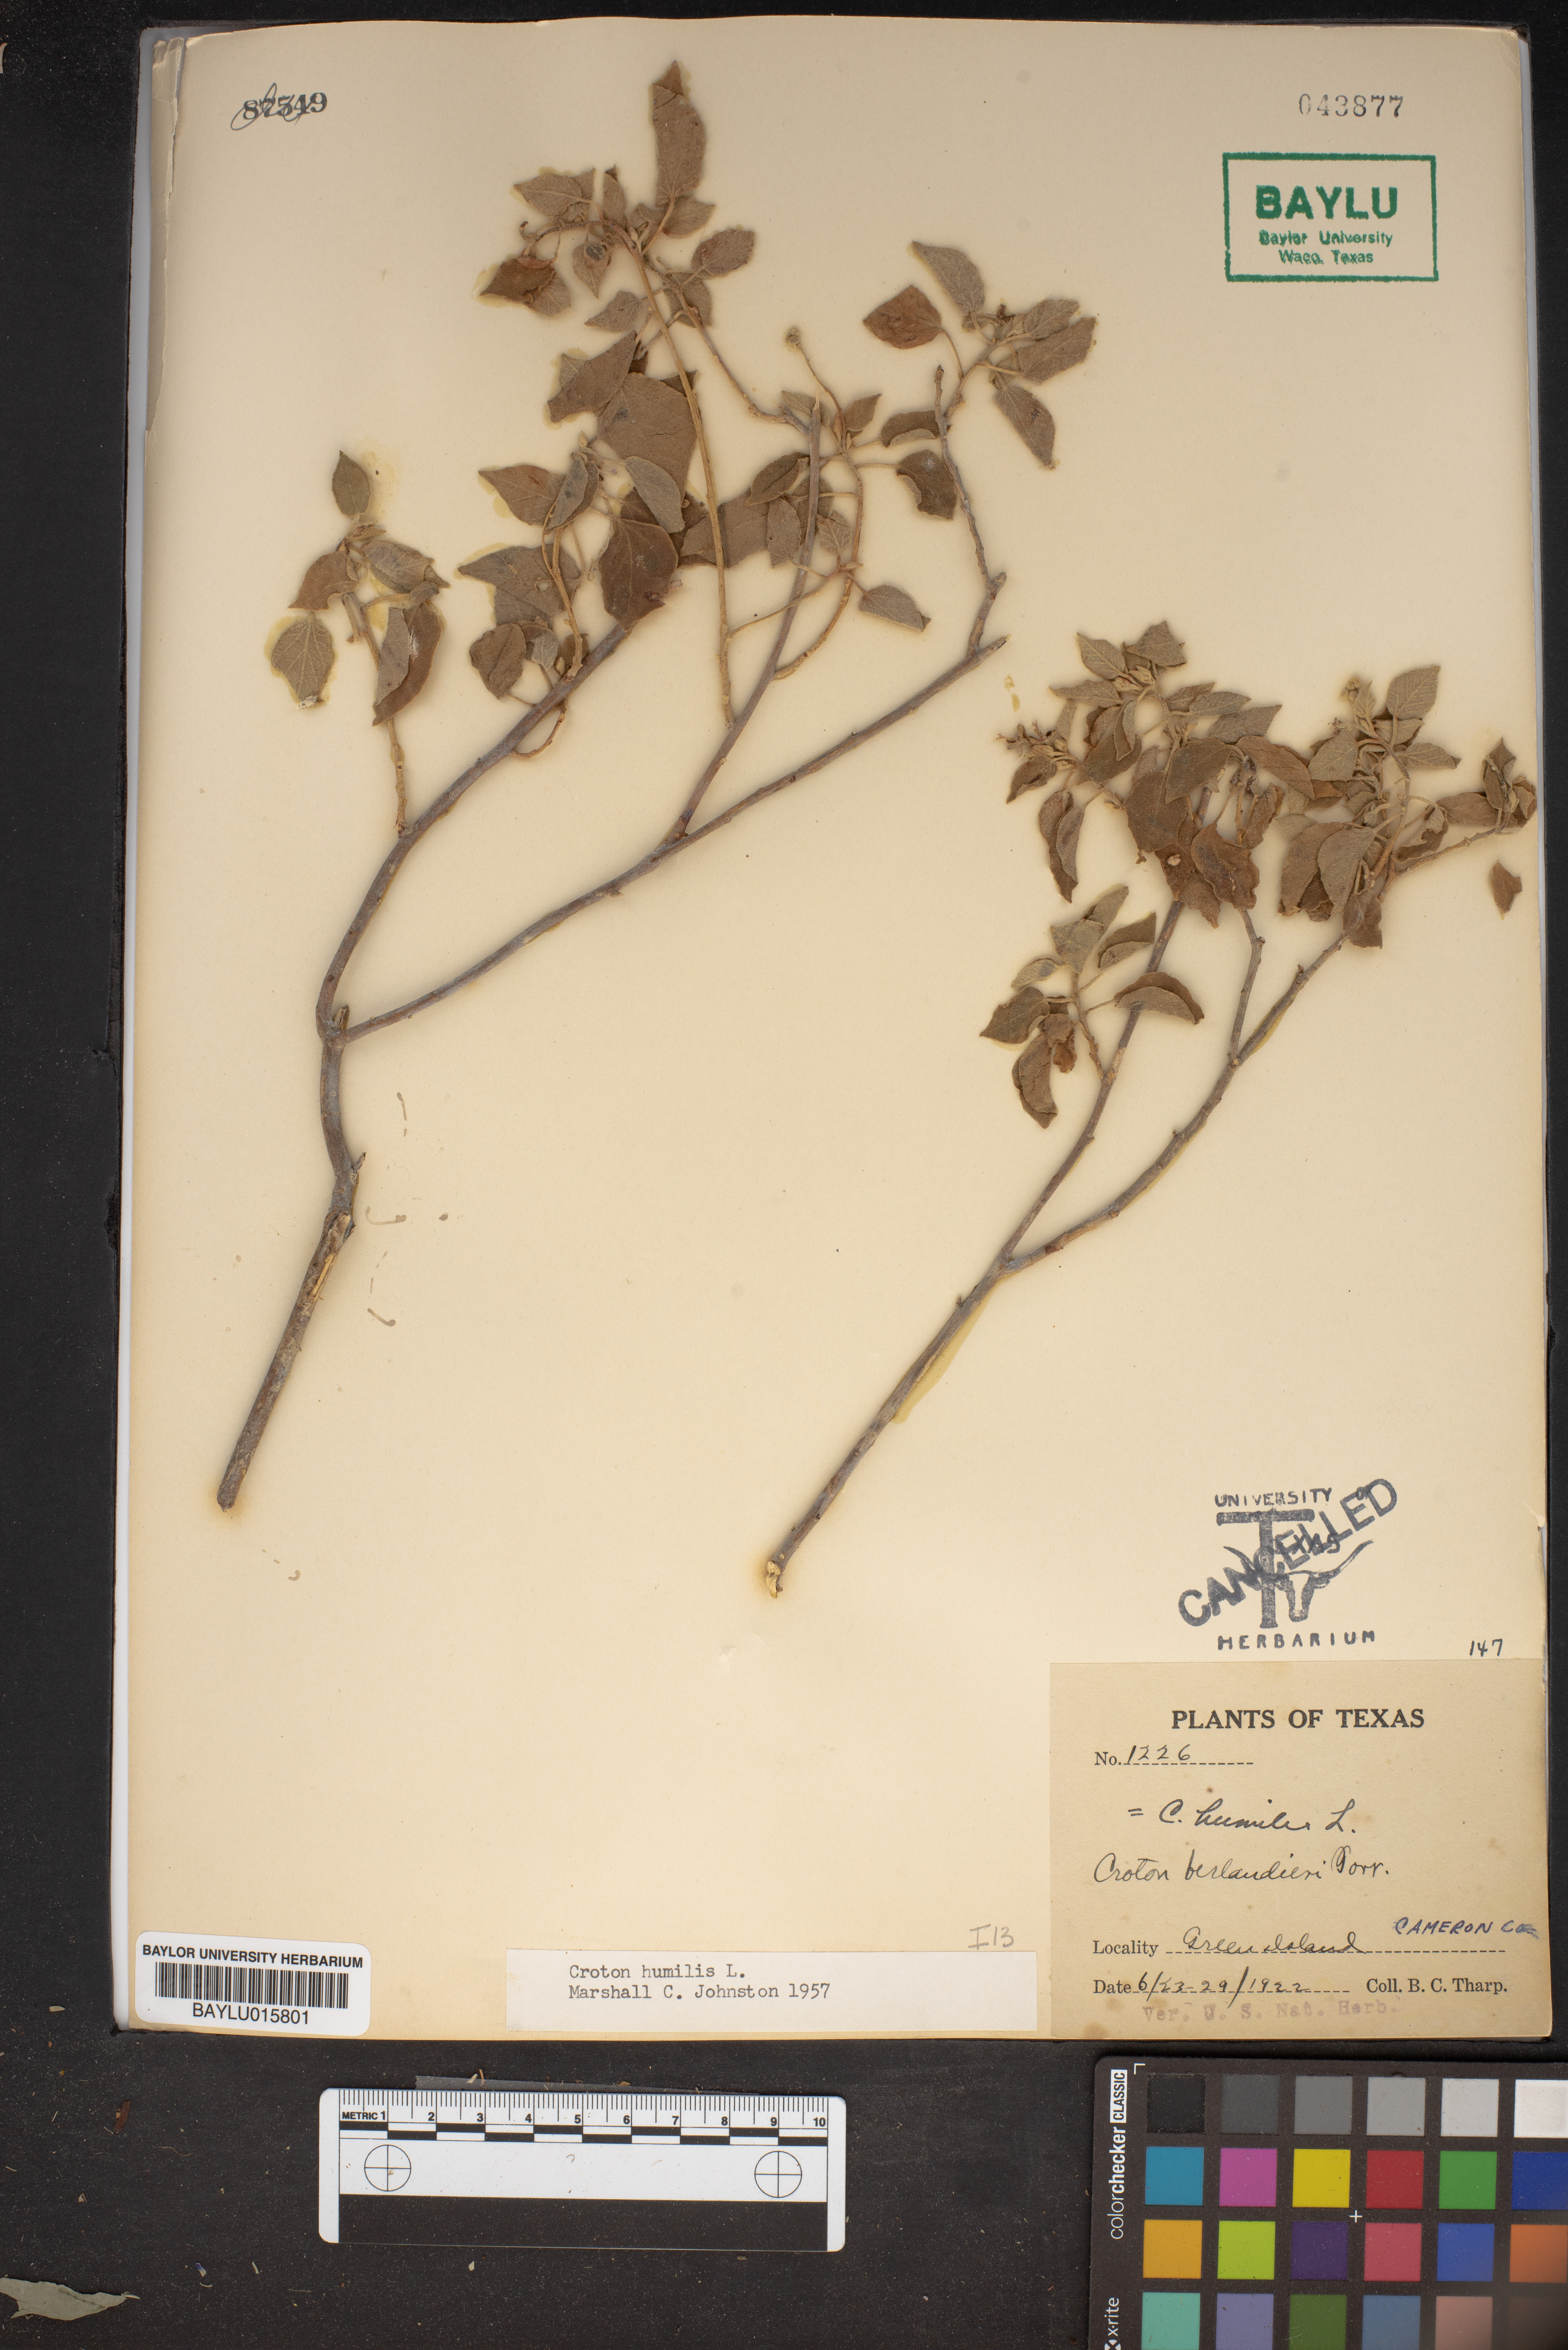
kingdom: Plantae
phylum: Tracheophyta
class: Magnoliopsida
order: Malpighiales
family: Euphorbiaceae
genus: Croton
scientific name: Croton humilis
